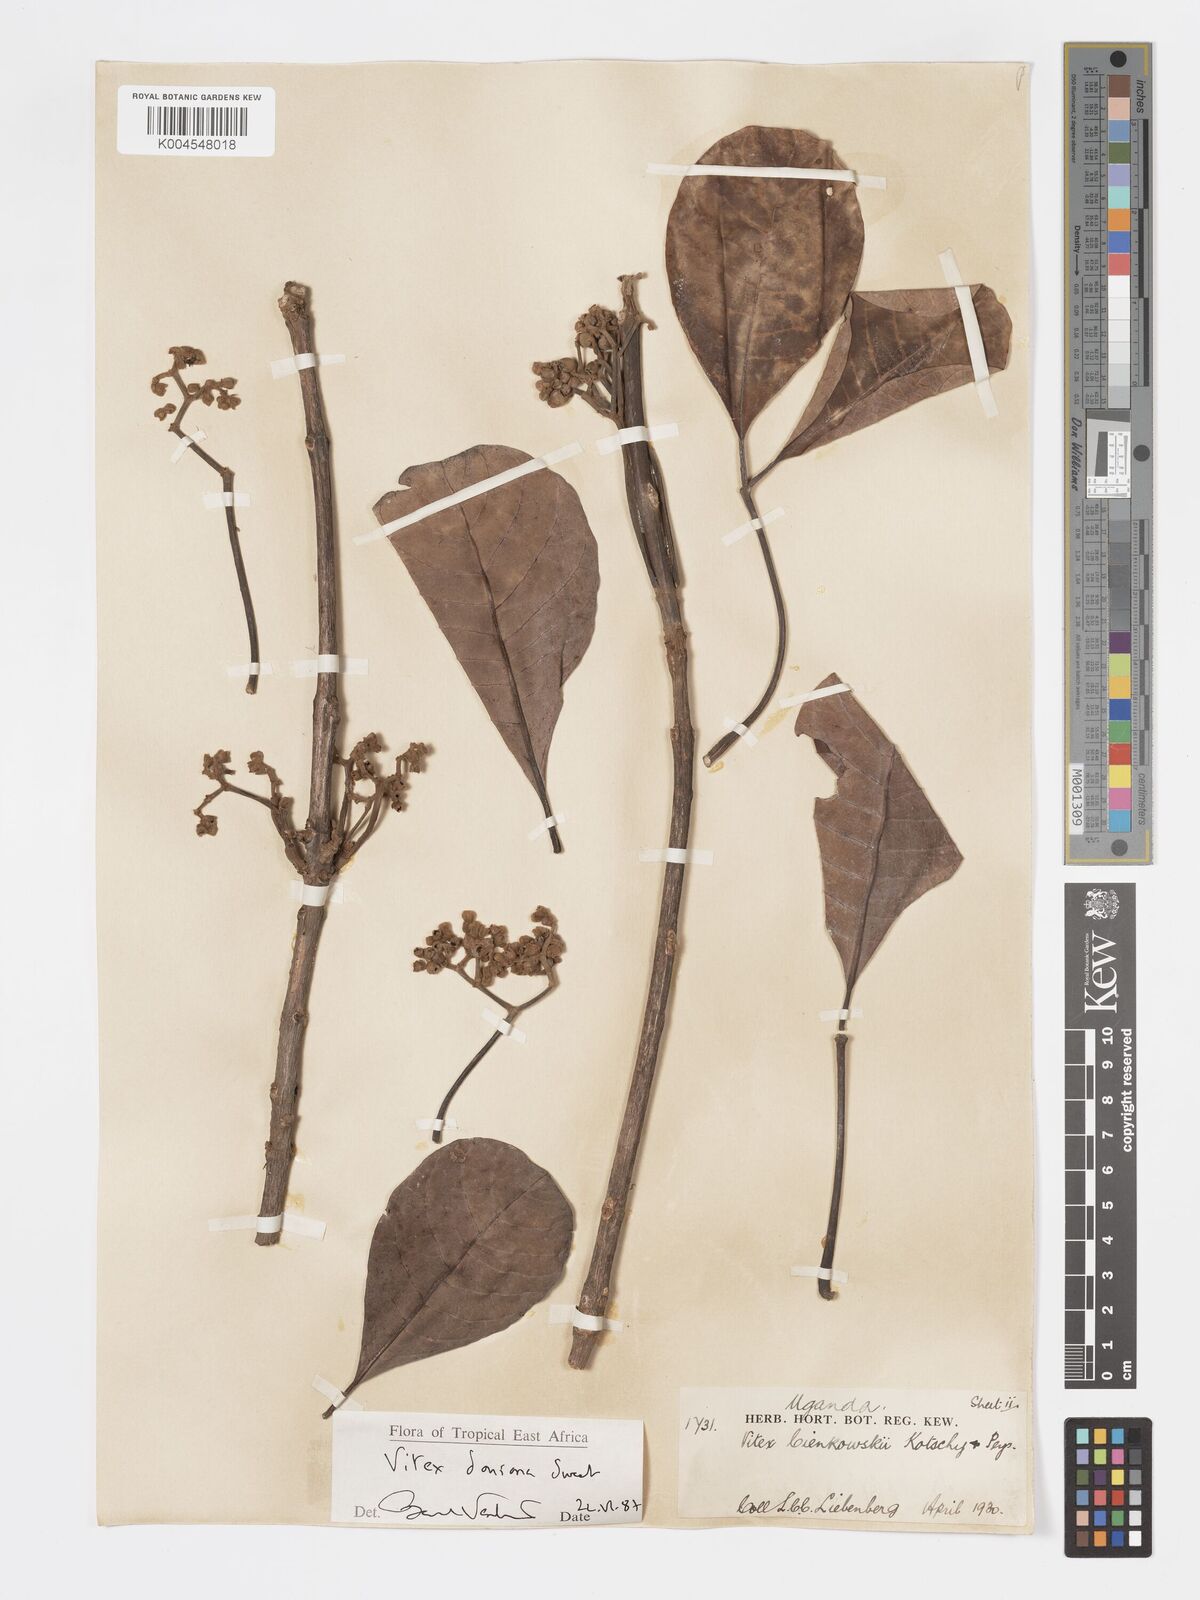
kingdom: Plantae
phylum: Tracheophyta
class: Magnoliopsida
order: Lamiales
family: Lamiaceae
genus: Vitex
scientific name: Vitex doniana
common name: Black plum
